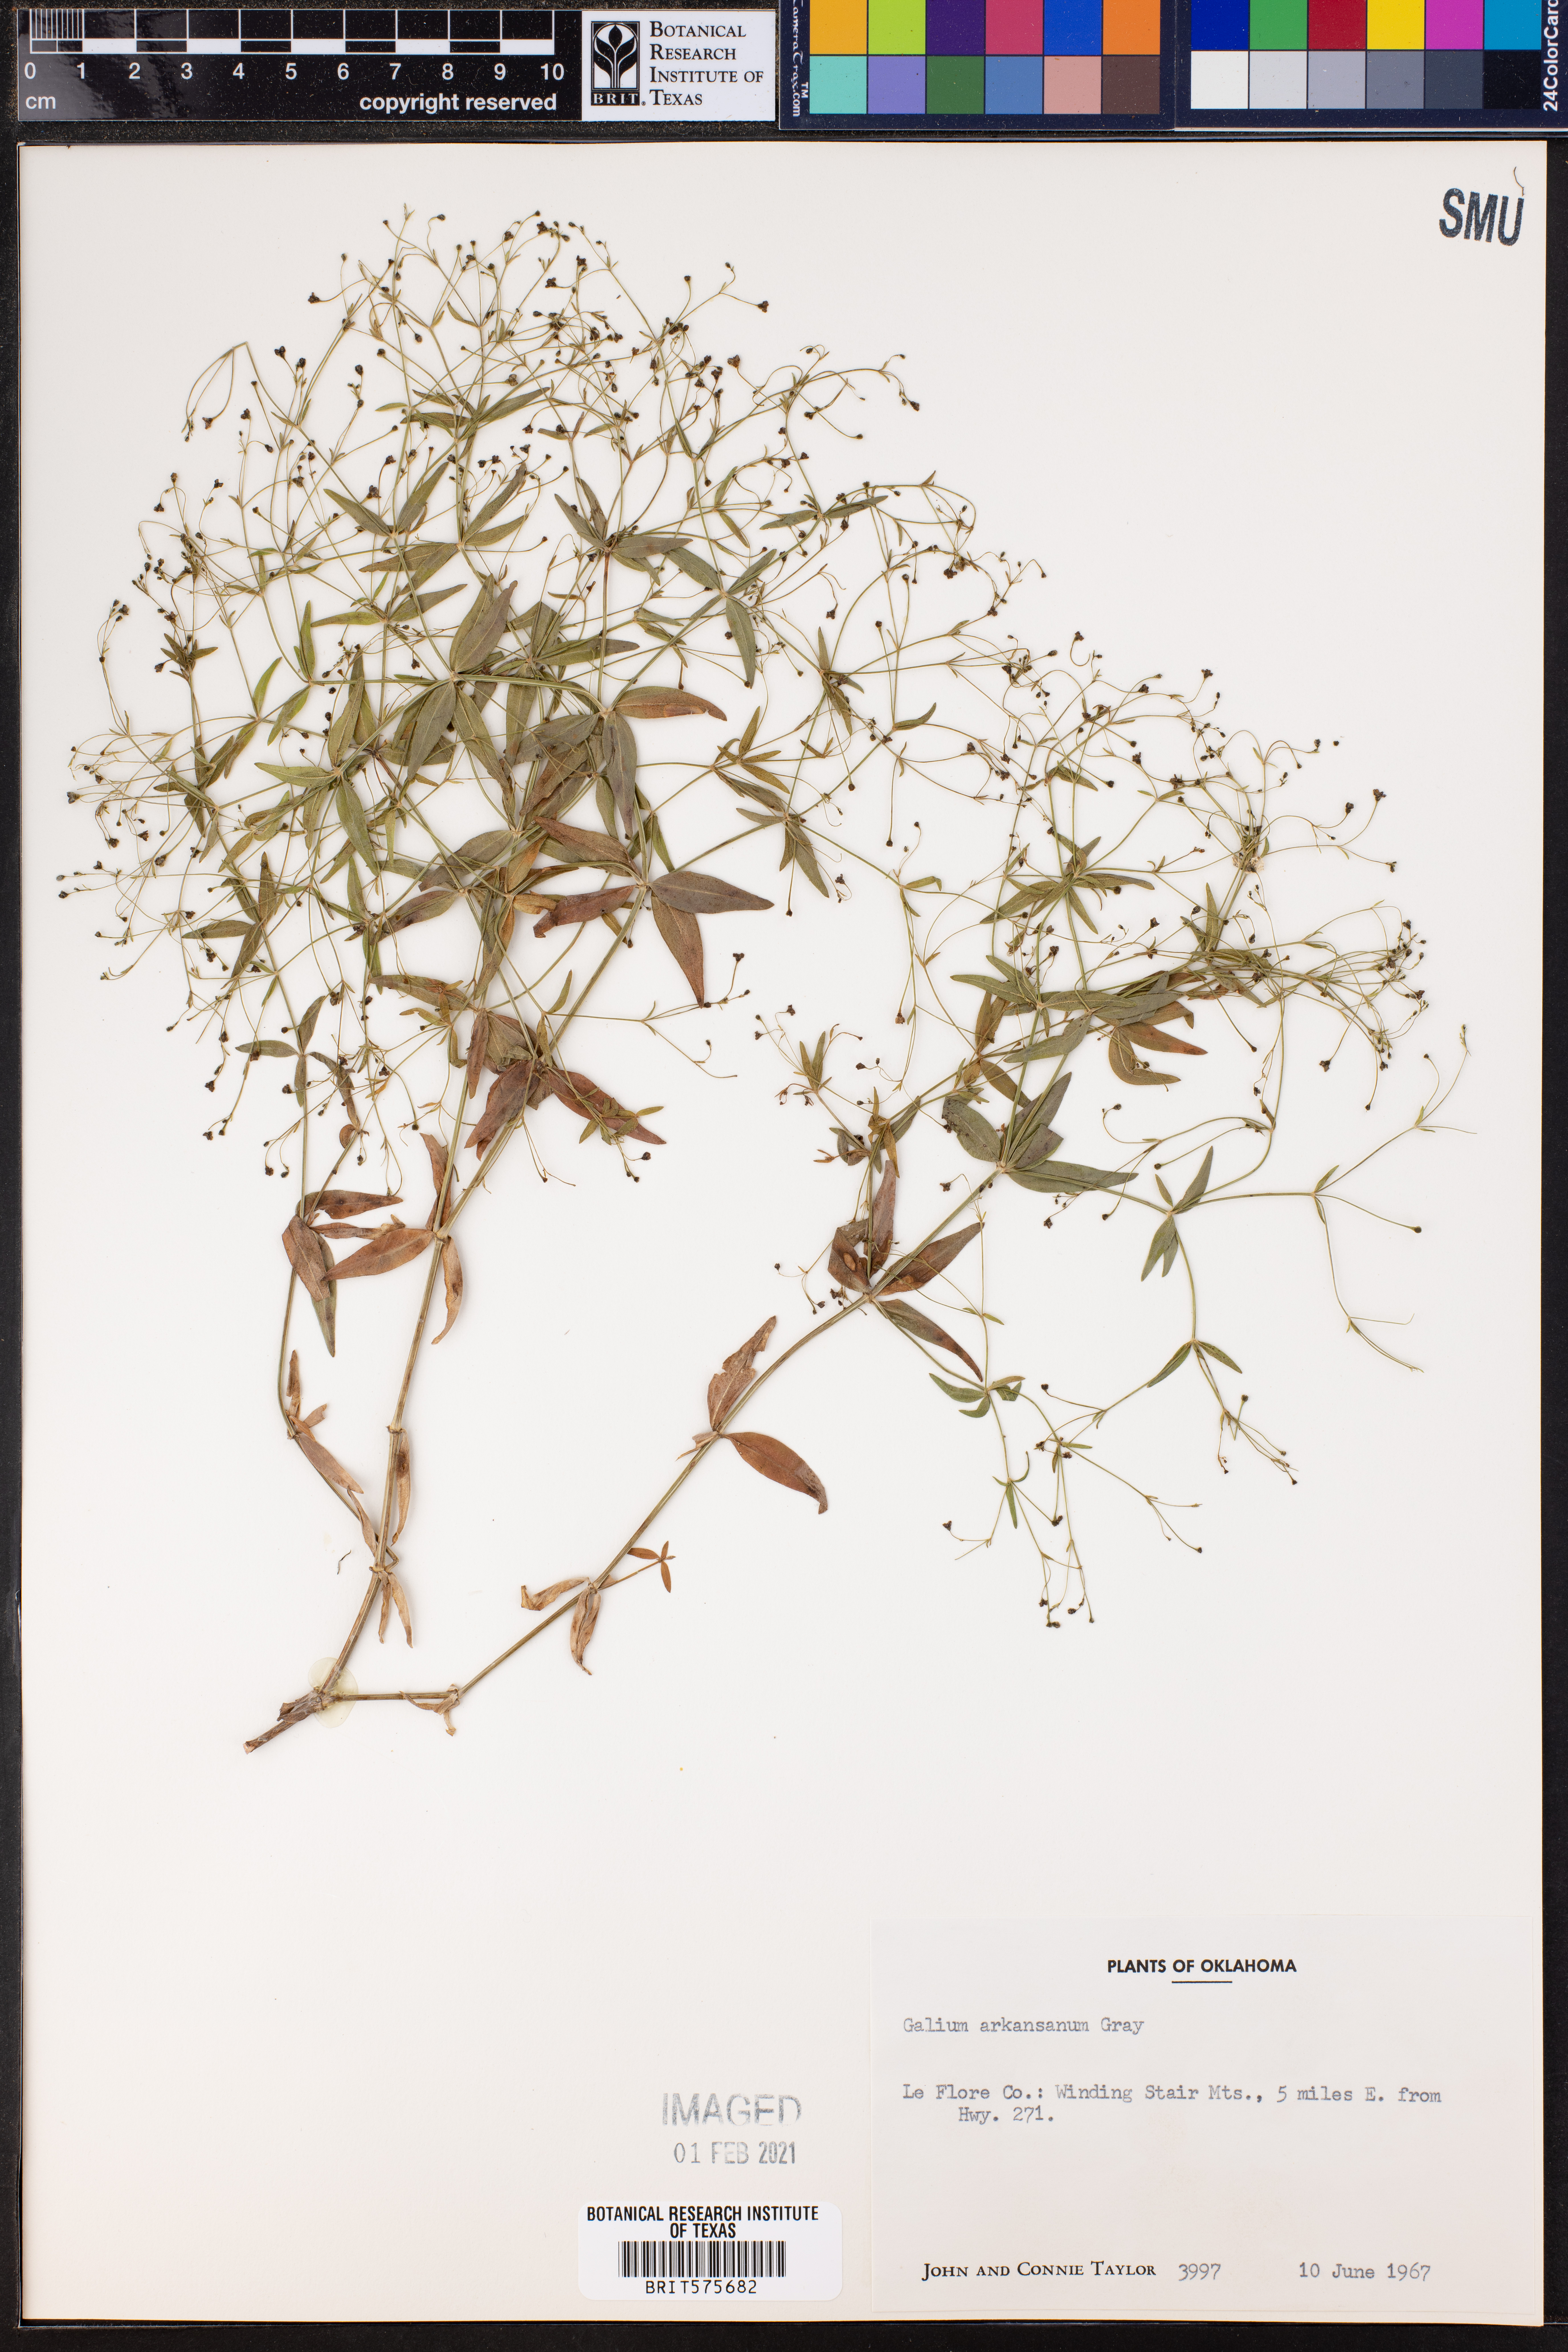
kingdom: Plantae
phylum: Tracheophyta
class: Magnoliopsida
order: Gentianales
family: Rubiaceae
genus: Galium
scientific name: Galium arkansanum
